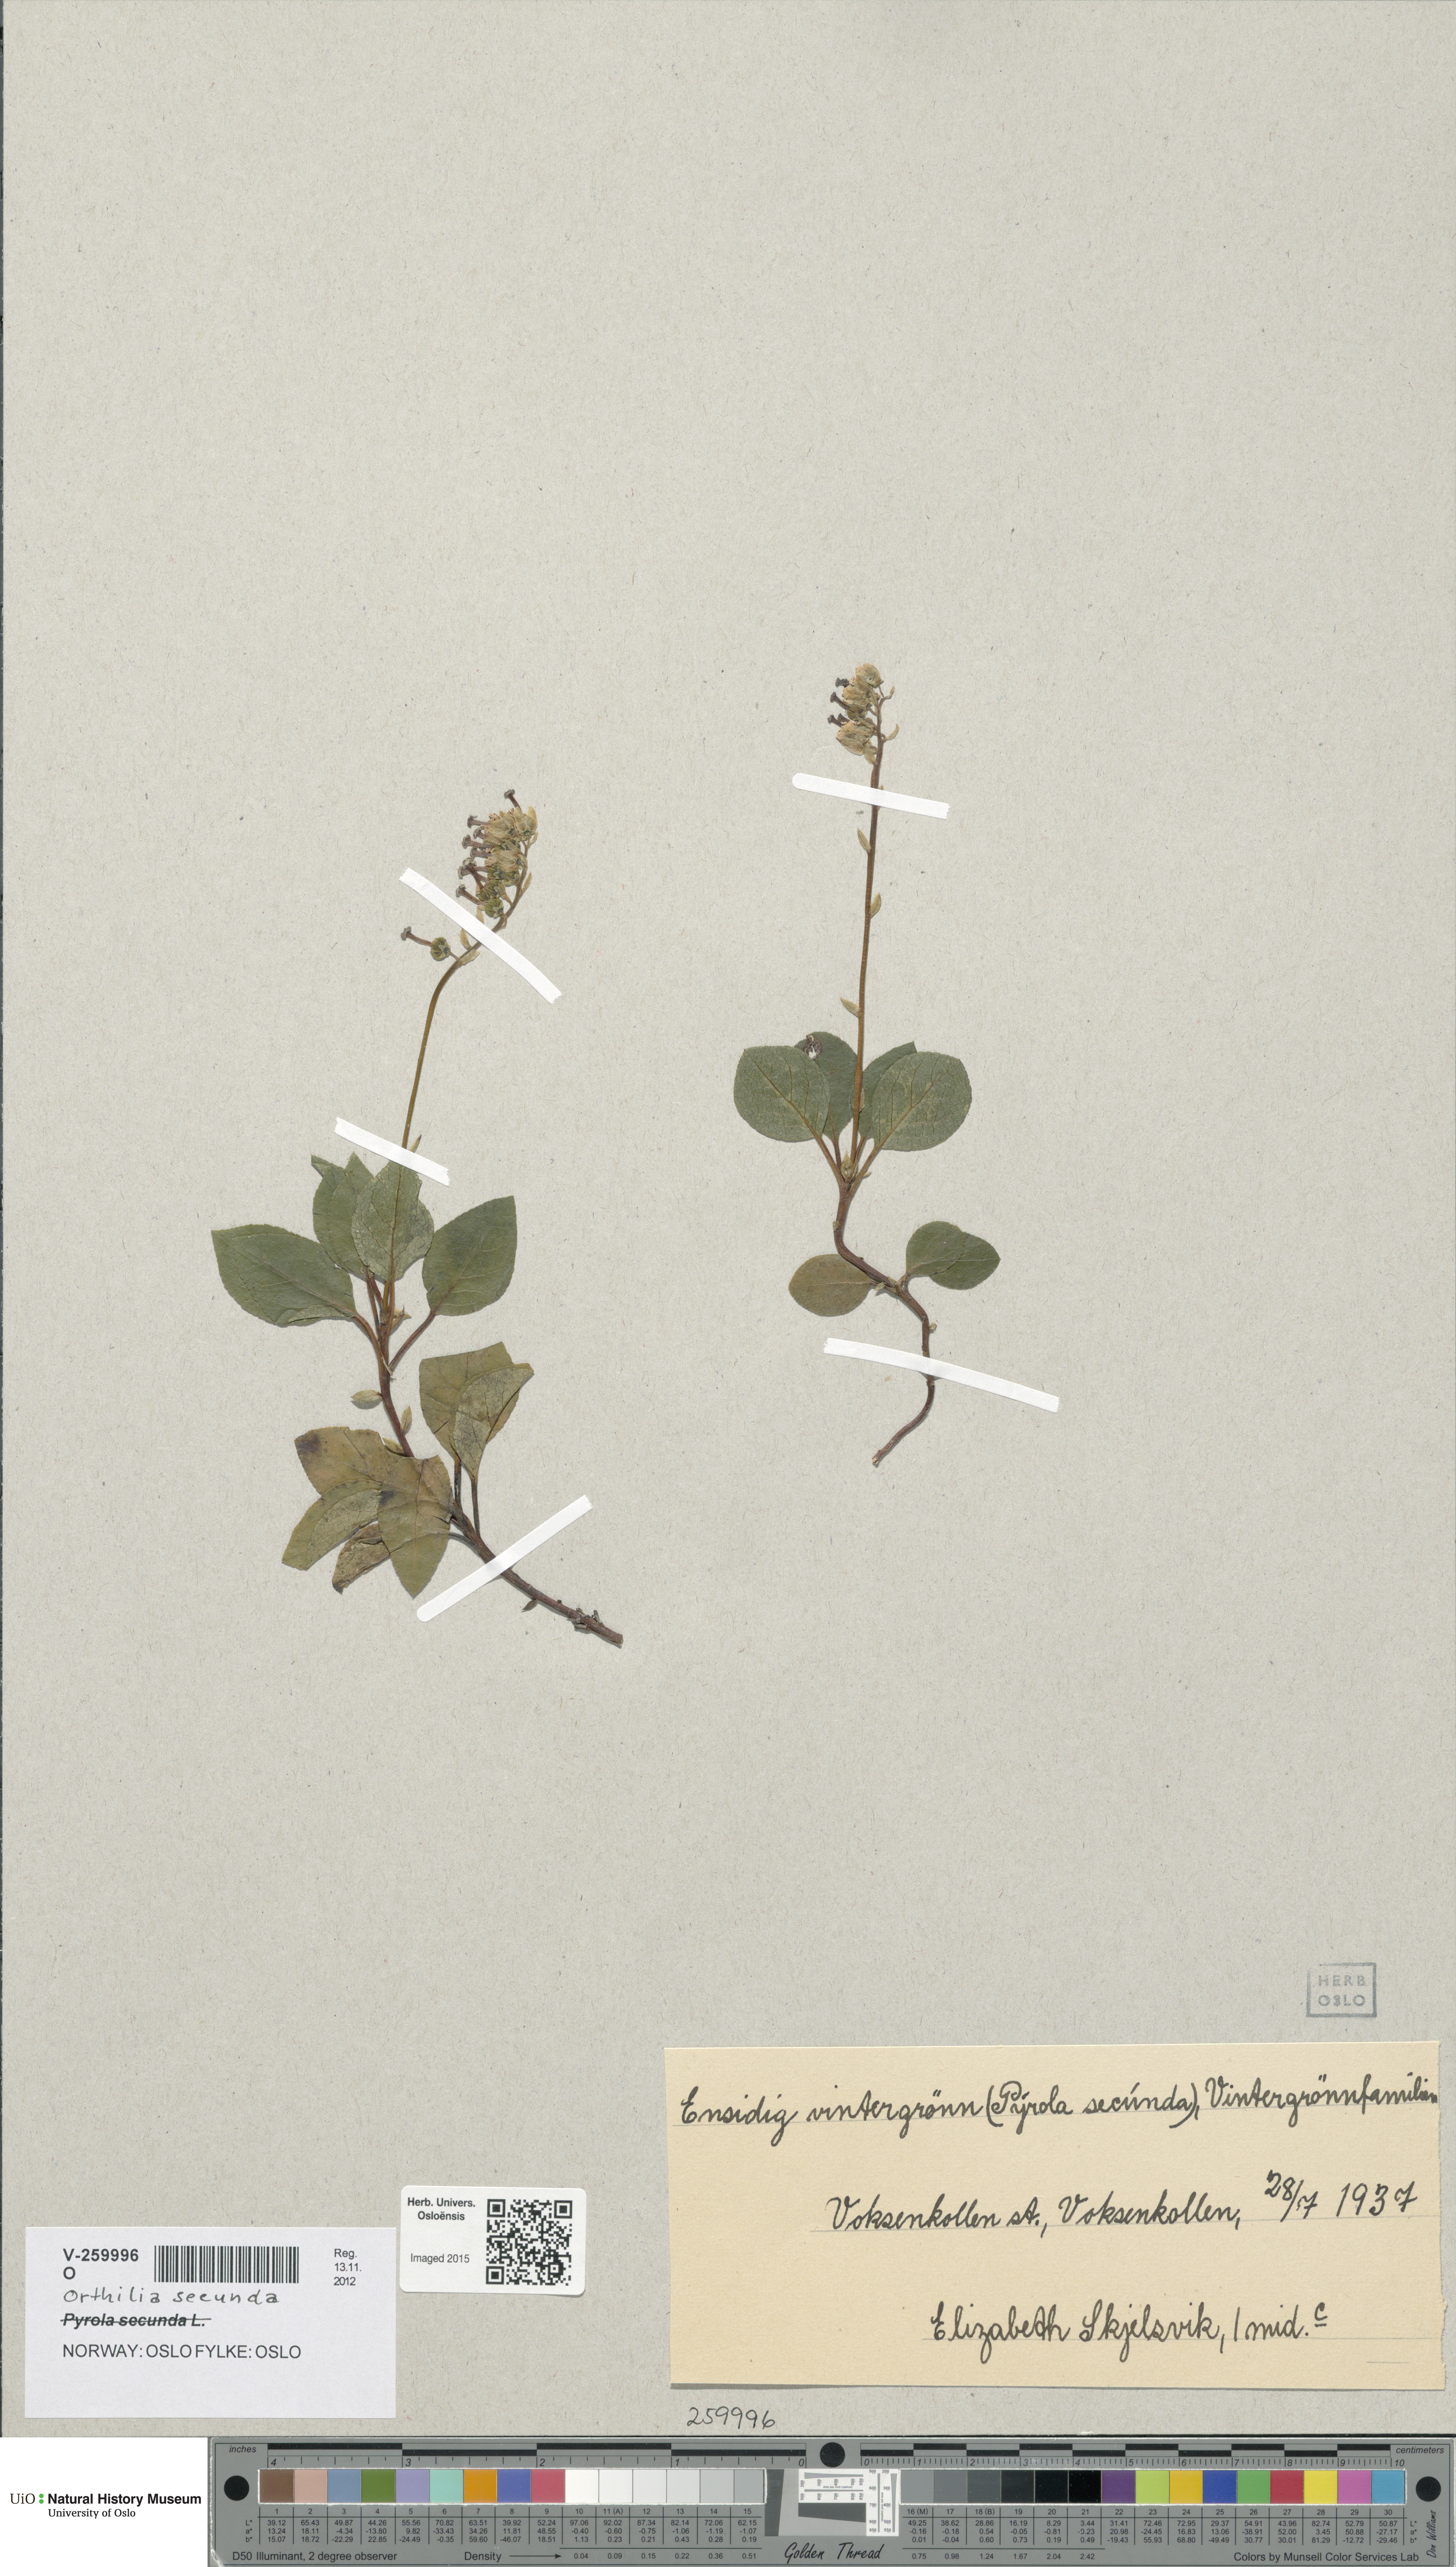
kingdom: Plantae
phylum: Tracheophyta
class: Magnoliopsida
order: Ericales
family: Ericaceae
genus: Orthilia
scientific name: Orthilia secunda
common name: One-sided orthilia
